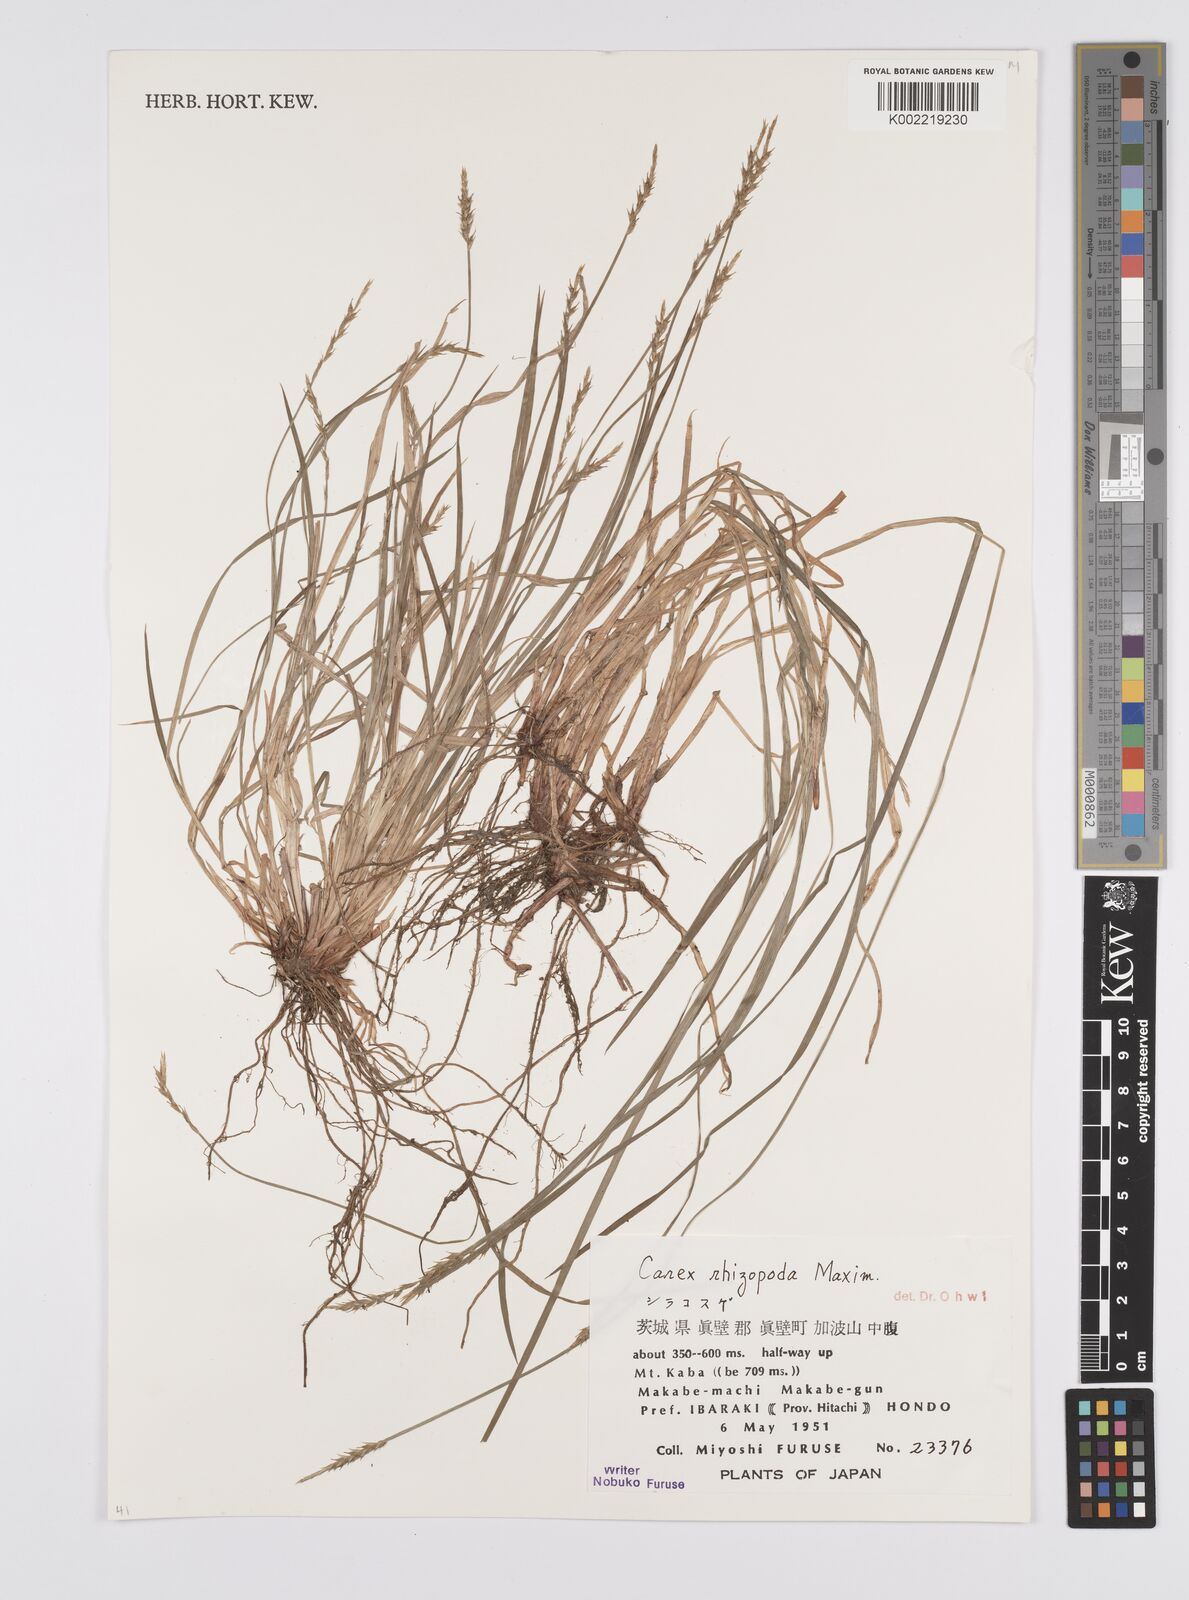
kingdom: Plantae
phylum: Tracheophyta
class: Liliopsida
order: Poales
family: Cyperaceae
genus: Carex
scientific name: Carex rhizopoda
